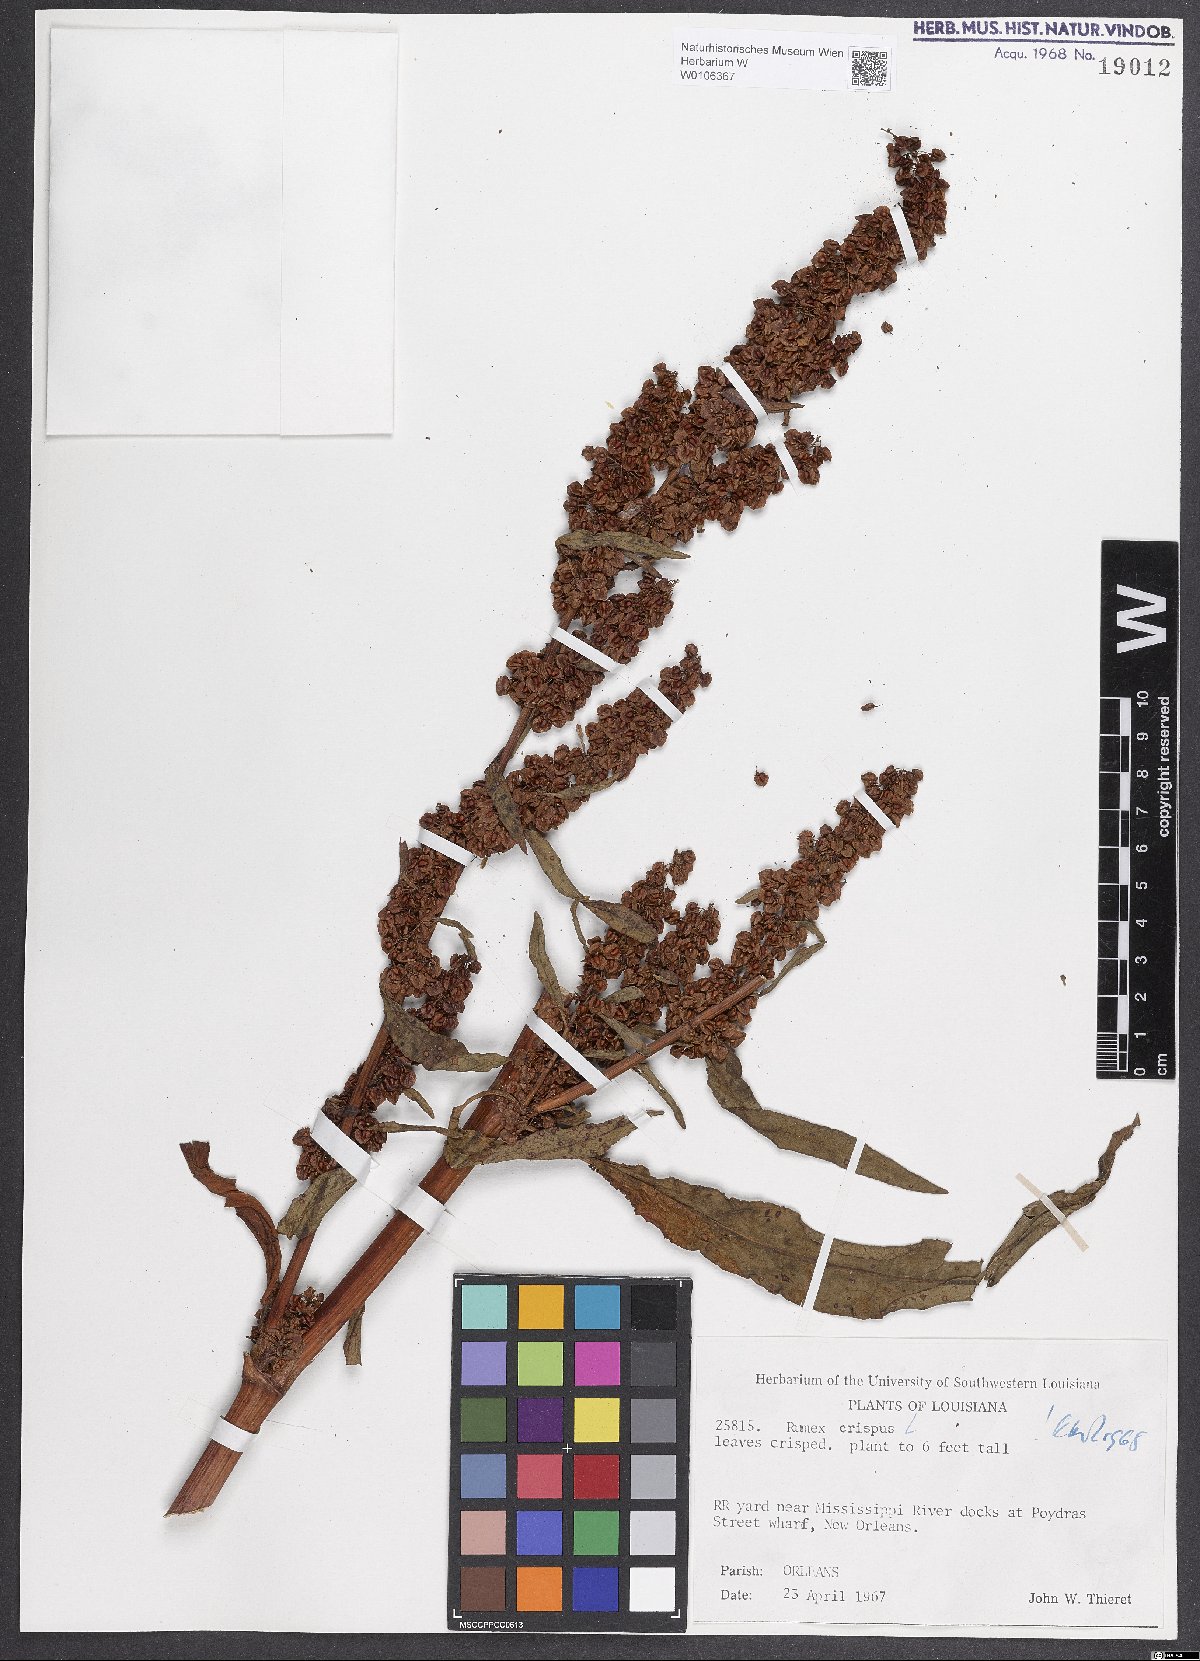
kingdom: Plantae
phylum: Tracheophyta
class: Magnoliopsida
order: Caryophyllales
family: Polygonaceae
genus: Rumex
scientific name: Rumex crispus
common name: Curled dock
